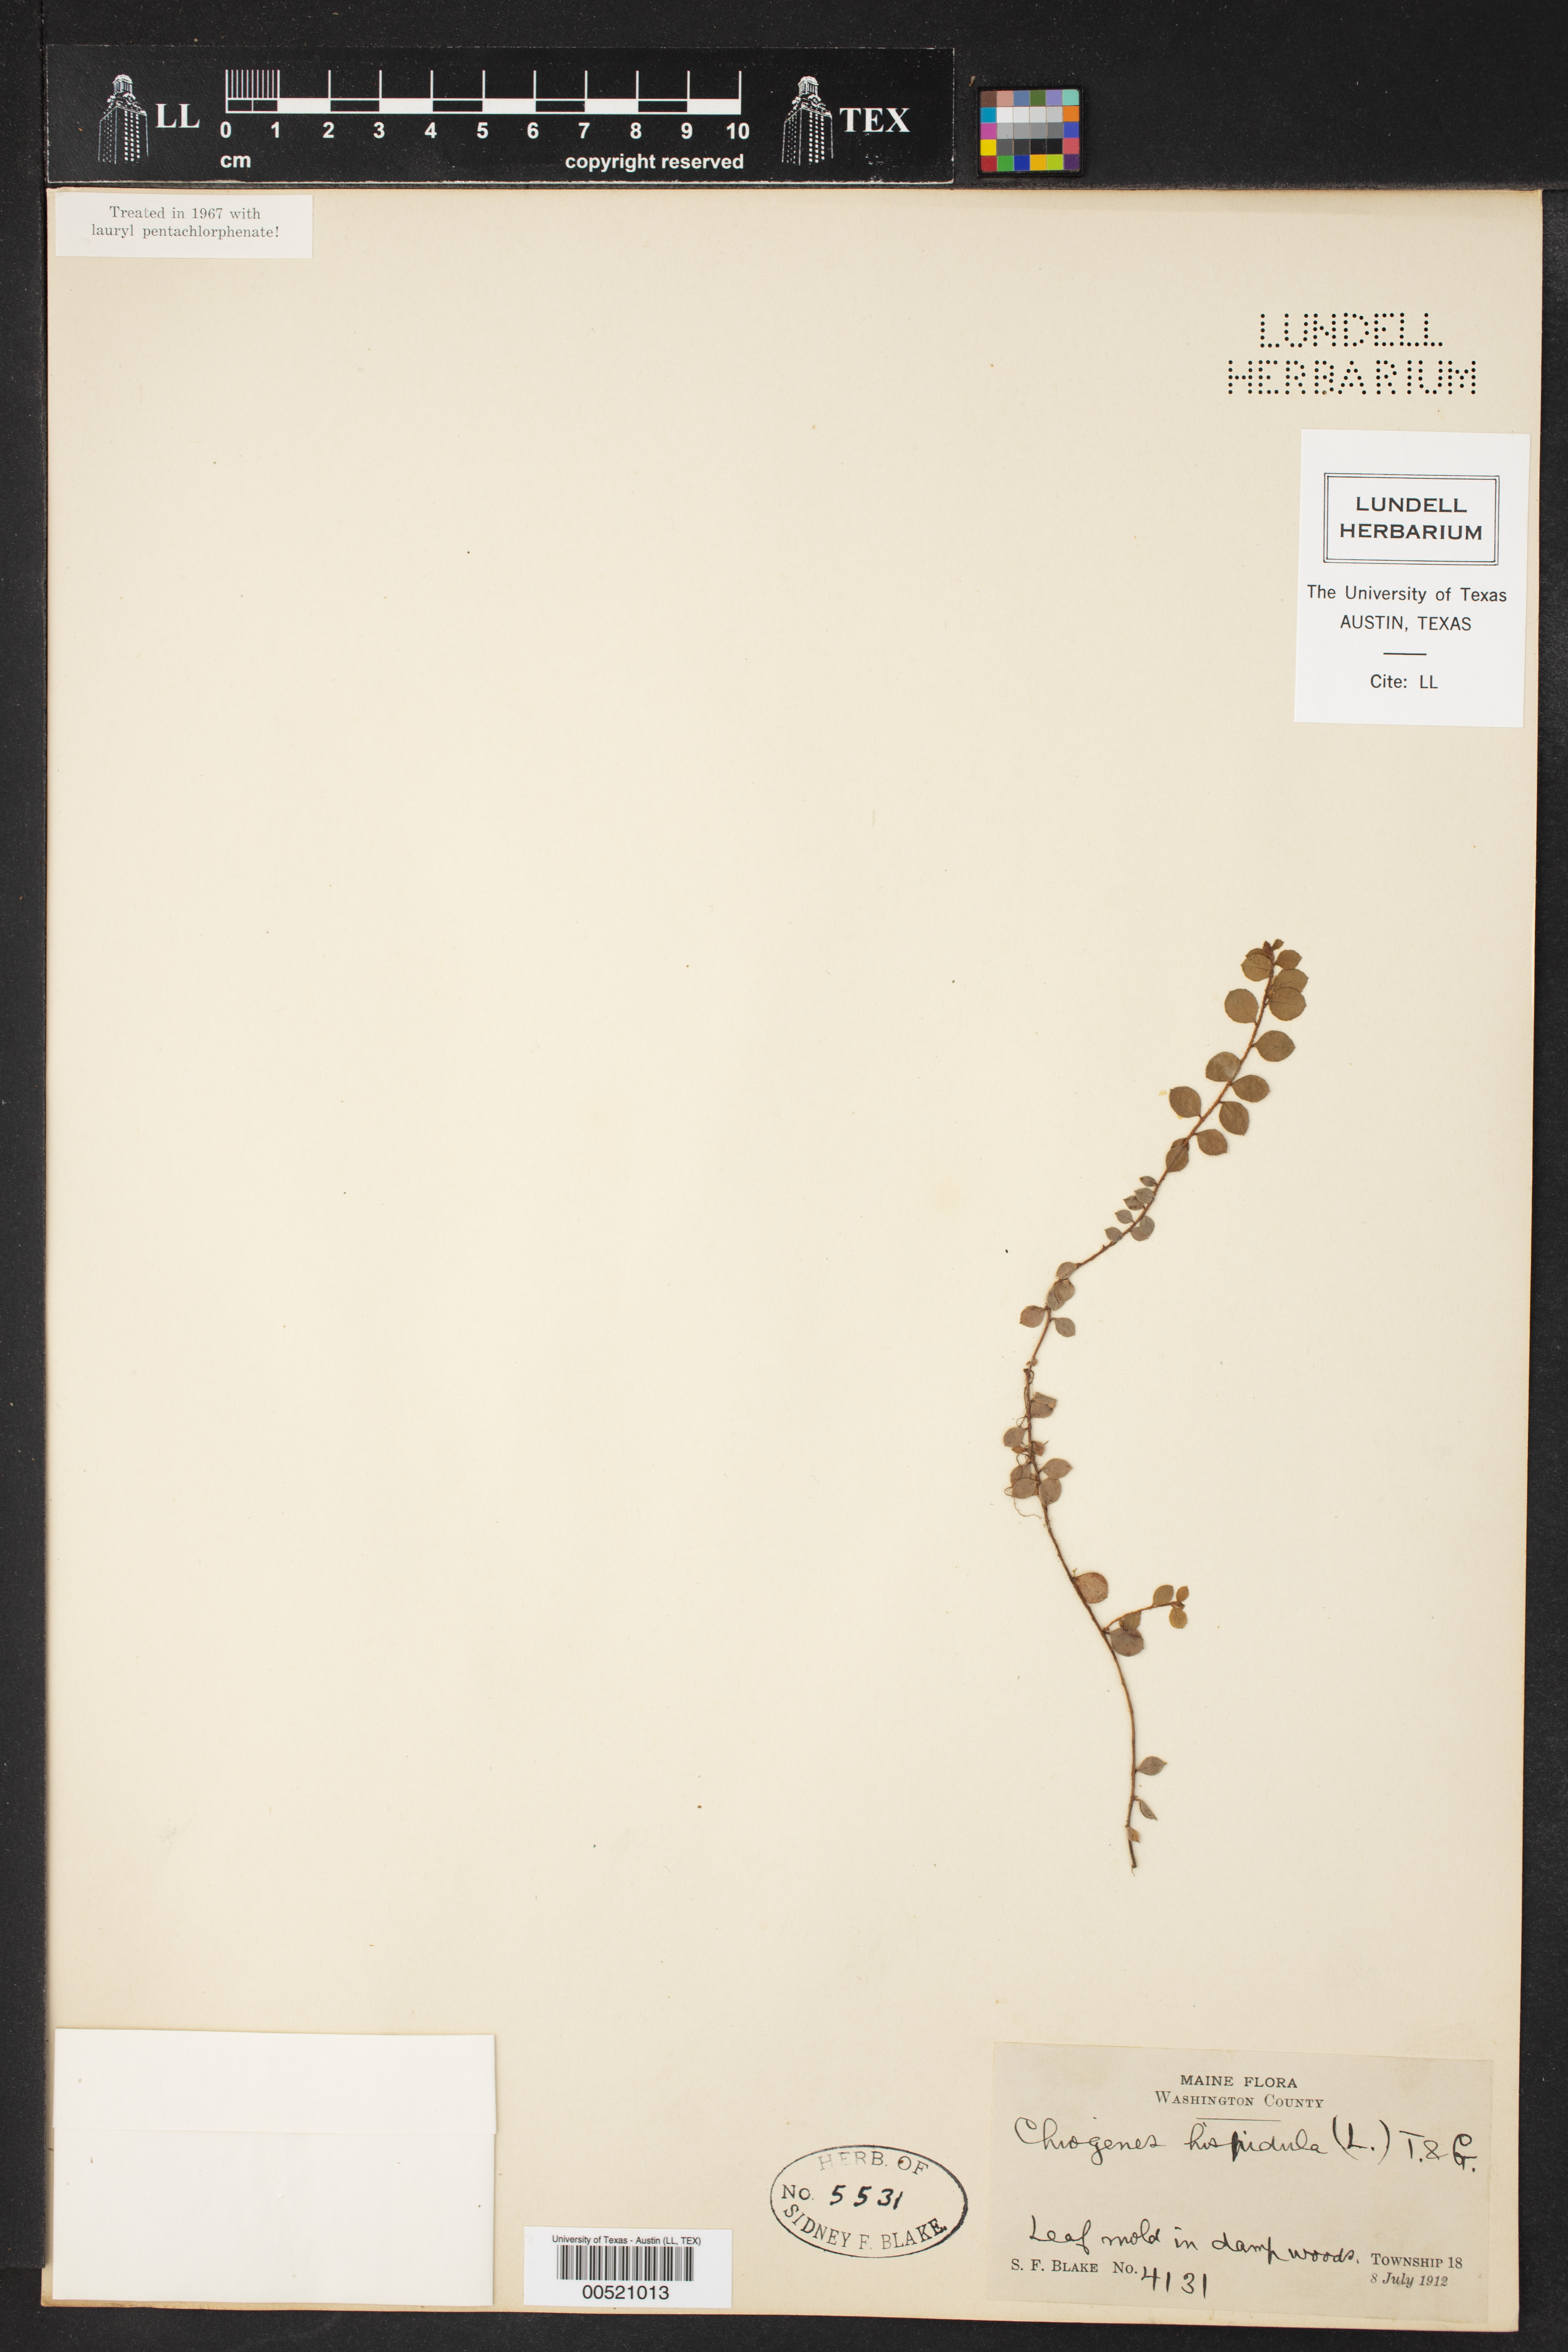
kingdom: Plantae
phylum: Tracheophyta
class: Magnoliopsida
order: Ericales
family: Ericaceae
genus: Chiogenes
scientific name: Chiogenes hispidula
